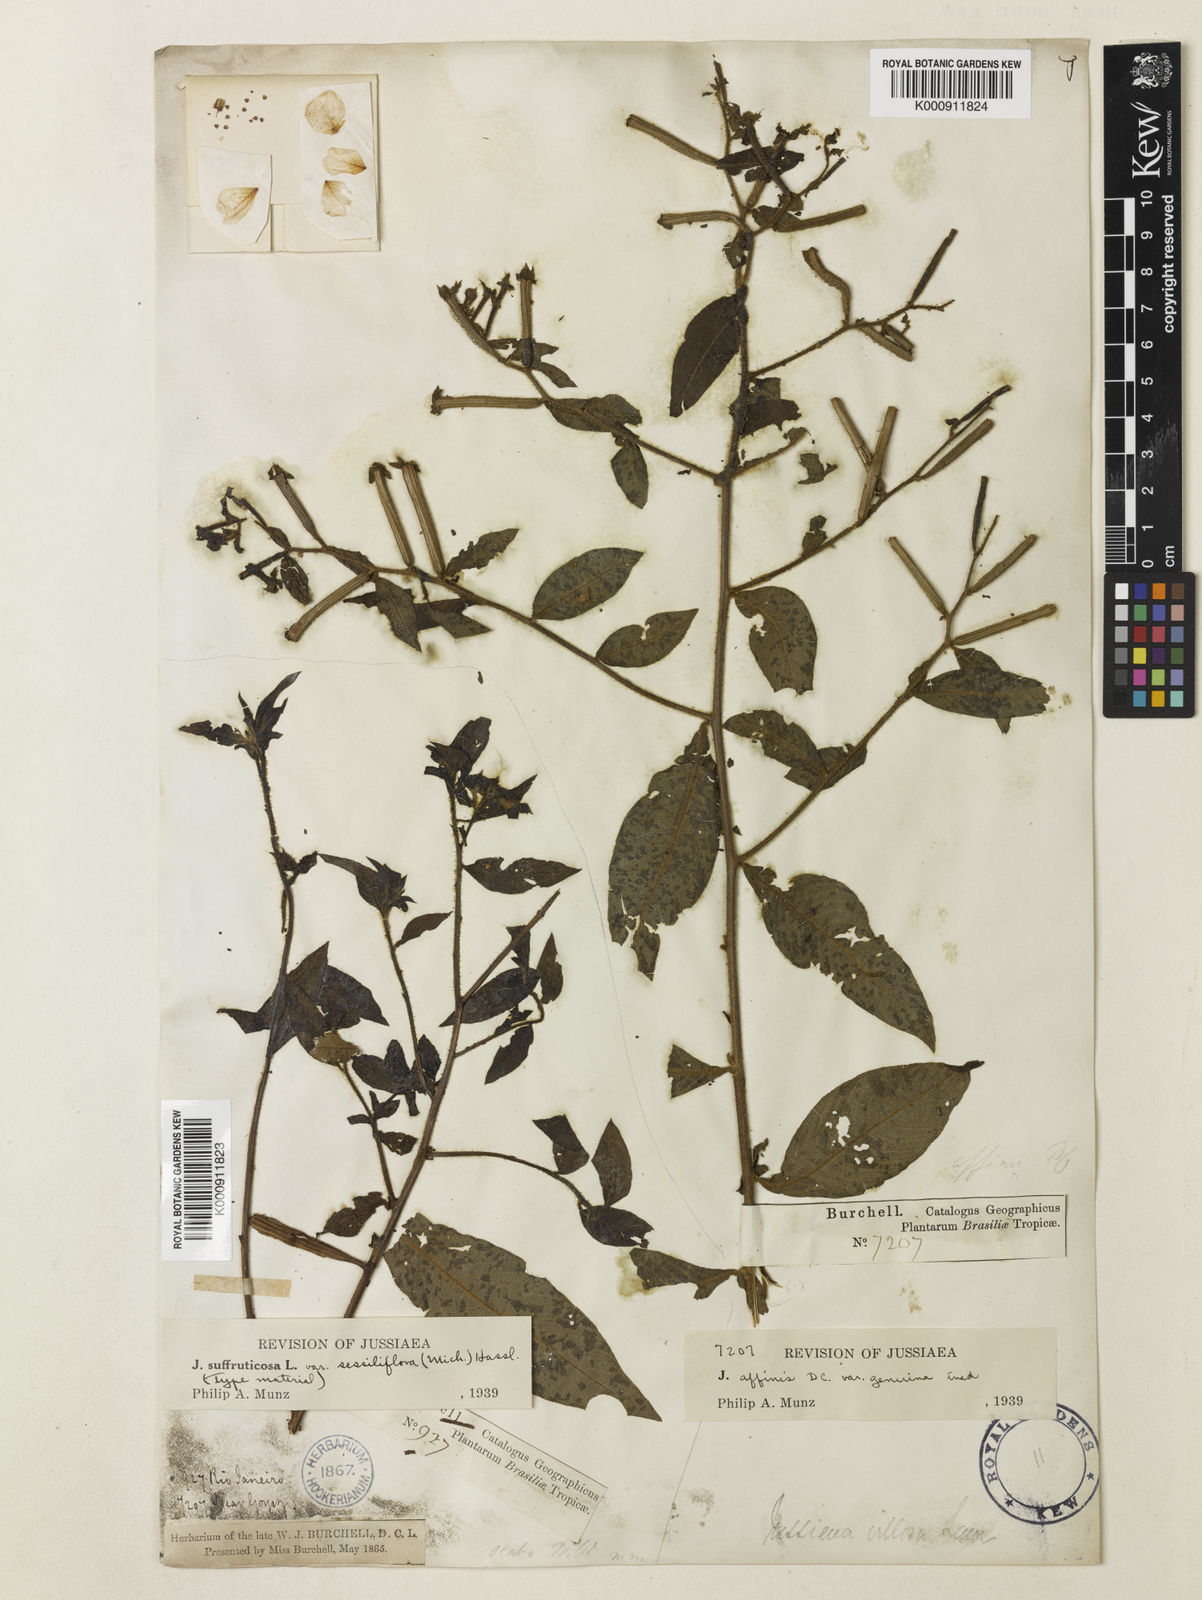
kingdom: Plantae
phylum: Tracheophyta
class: Magnoliopsida
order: Myrtales
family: Onagraceae
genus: Ludwigia
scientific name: Ludwigia octovalvis
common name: Water-primrose
